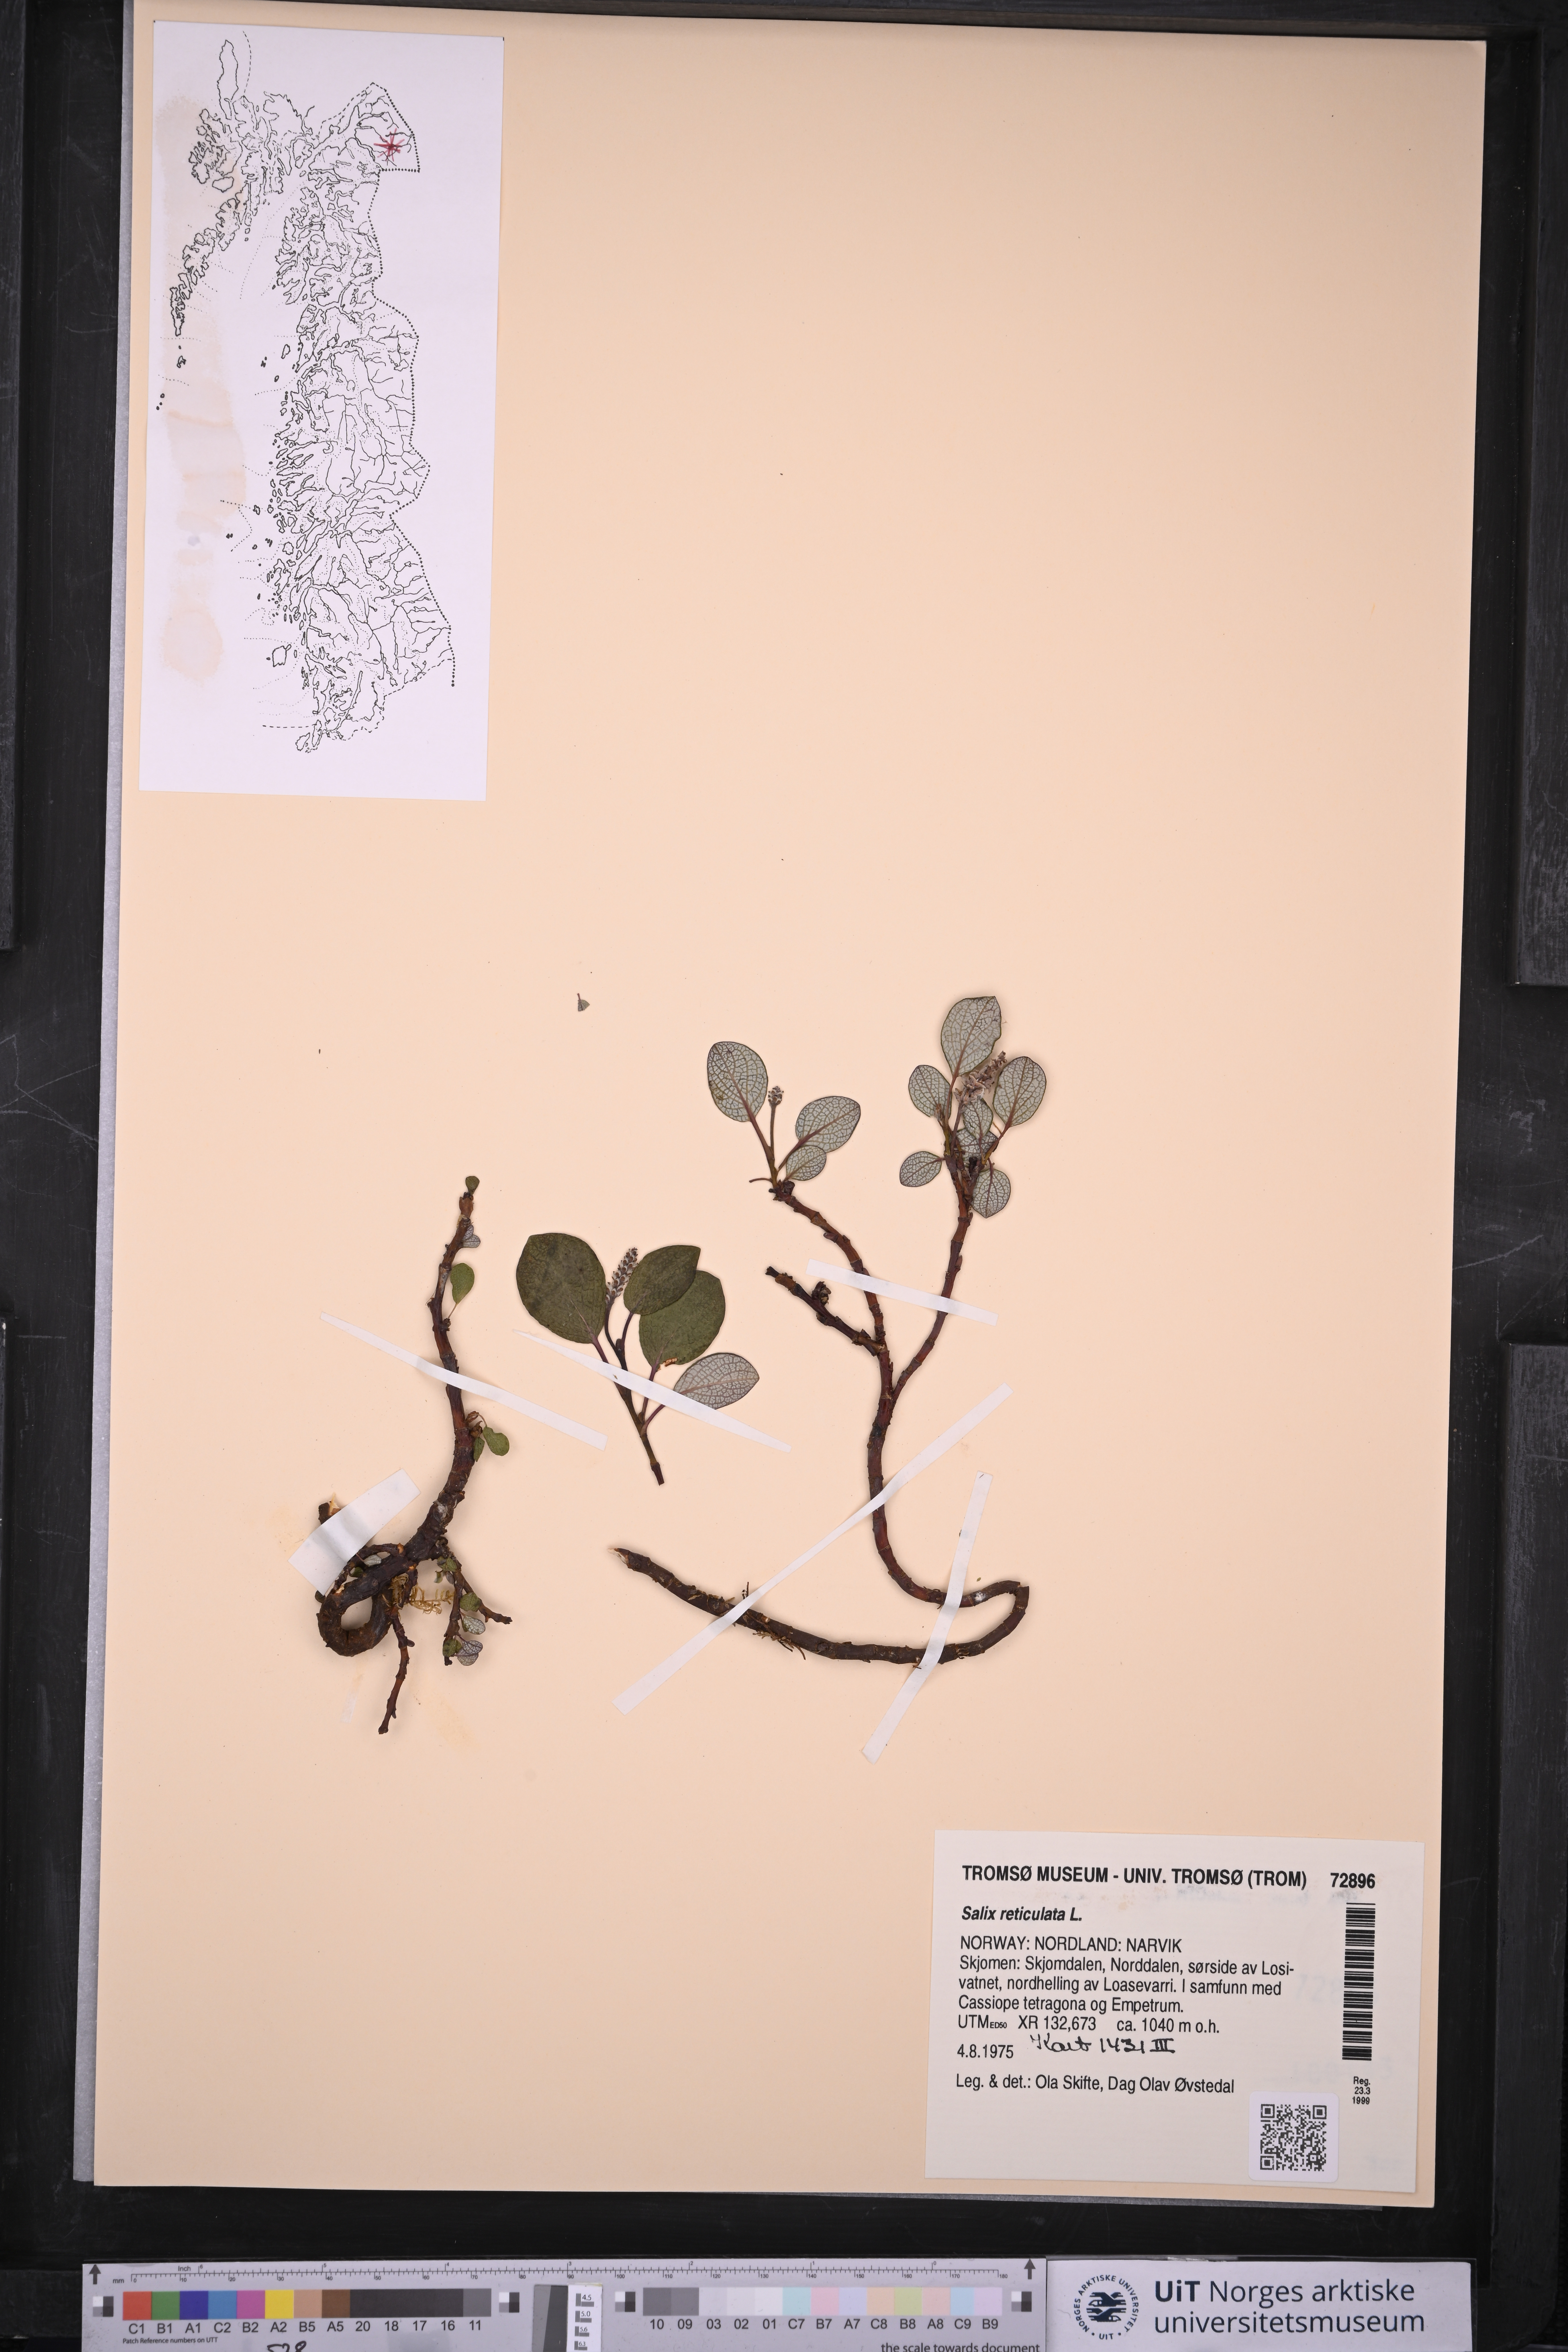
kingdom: Plantae
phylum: Tracheophyta
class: Magnoliopsida
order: Malpighiales
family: Salicaceae
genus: Salix
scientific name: Salix reticulata
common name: Net-leaved willow
